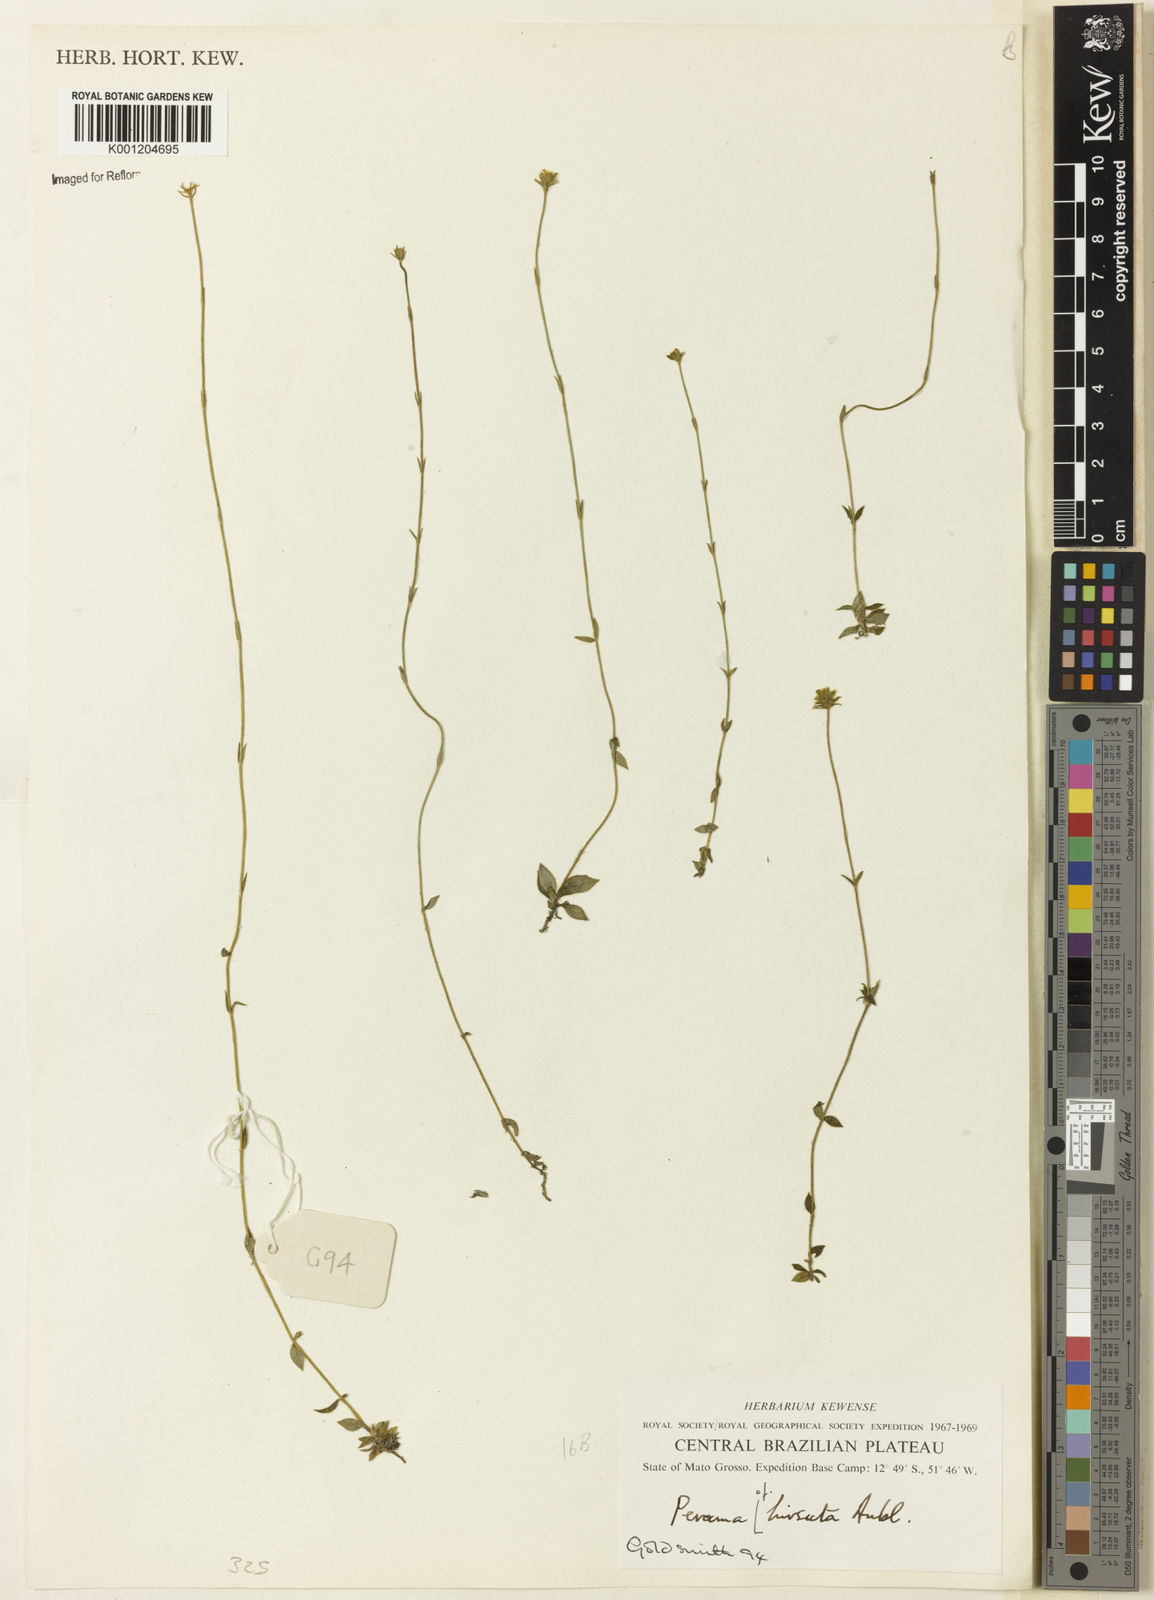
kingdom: Plantae
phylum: Tracheophyta
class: Magnoliopsida
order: Gentianales
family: Rubiaceae
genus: Perama
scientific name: Perama hirsuta
